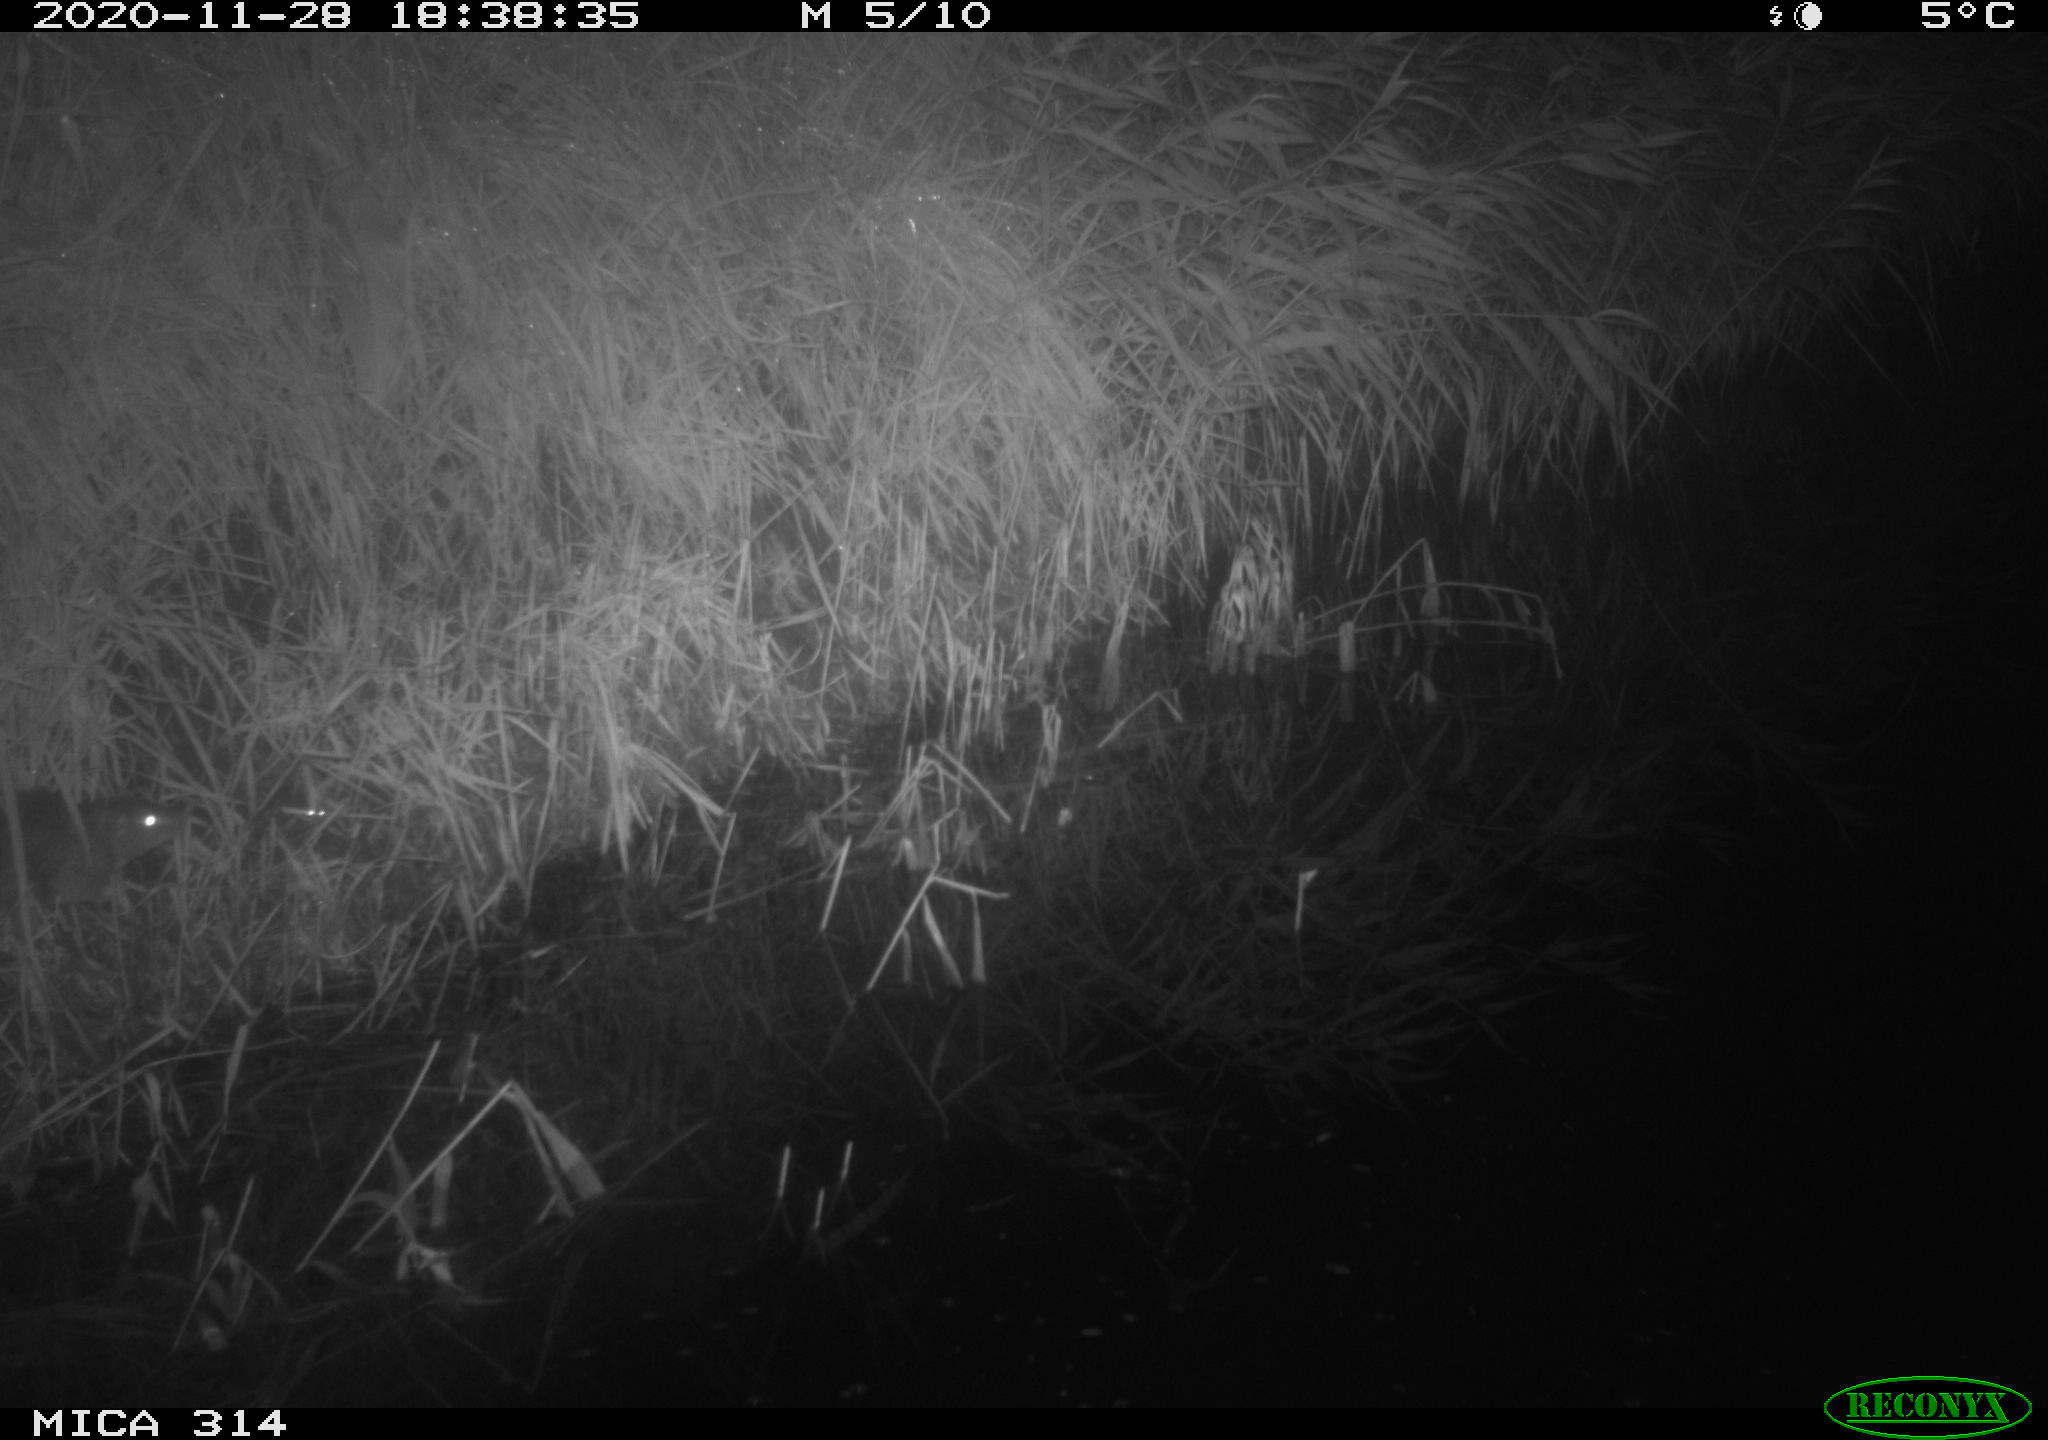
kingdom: Animalia
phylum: Chordata
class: Mammalia
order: Rodentia
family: Muridae
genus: Rattus
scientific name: Rattus norvegicus
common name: Brown rat
